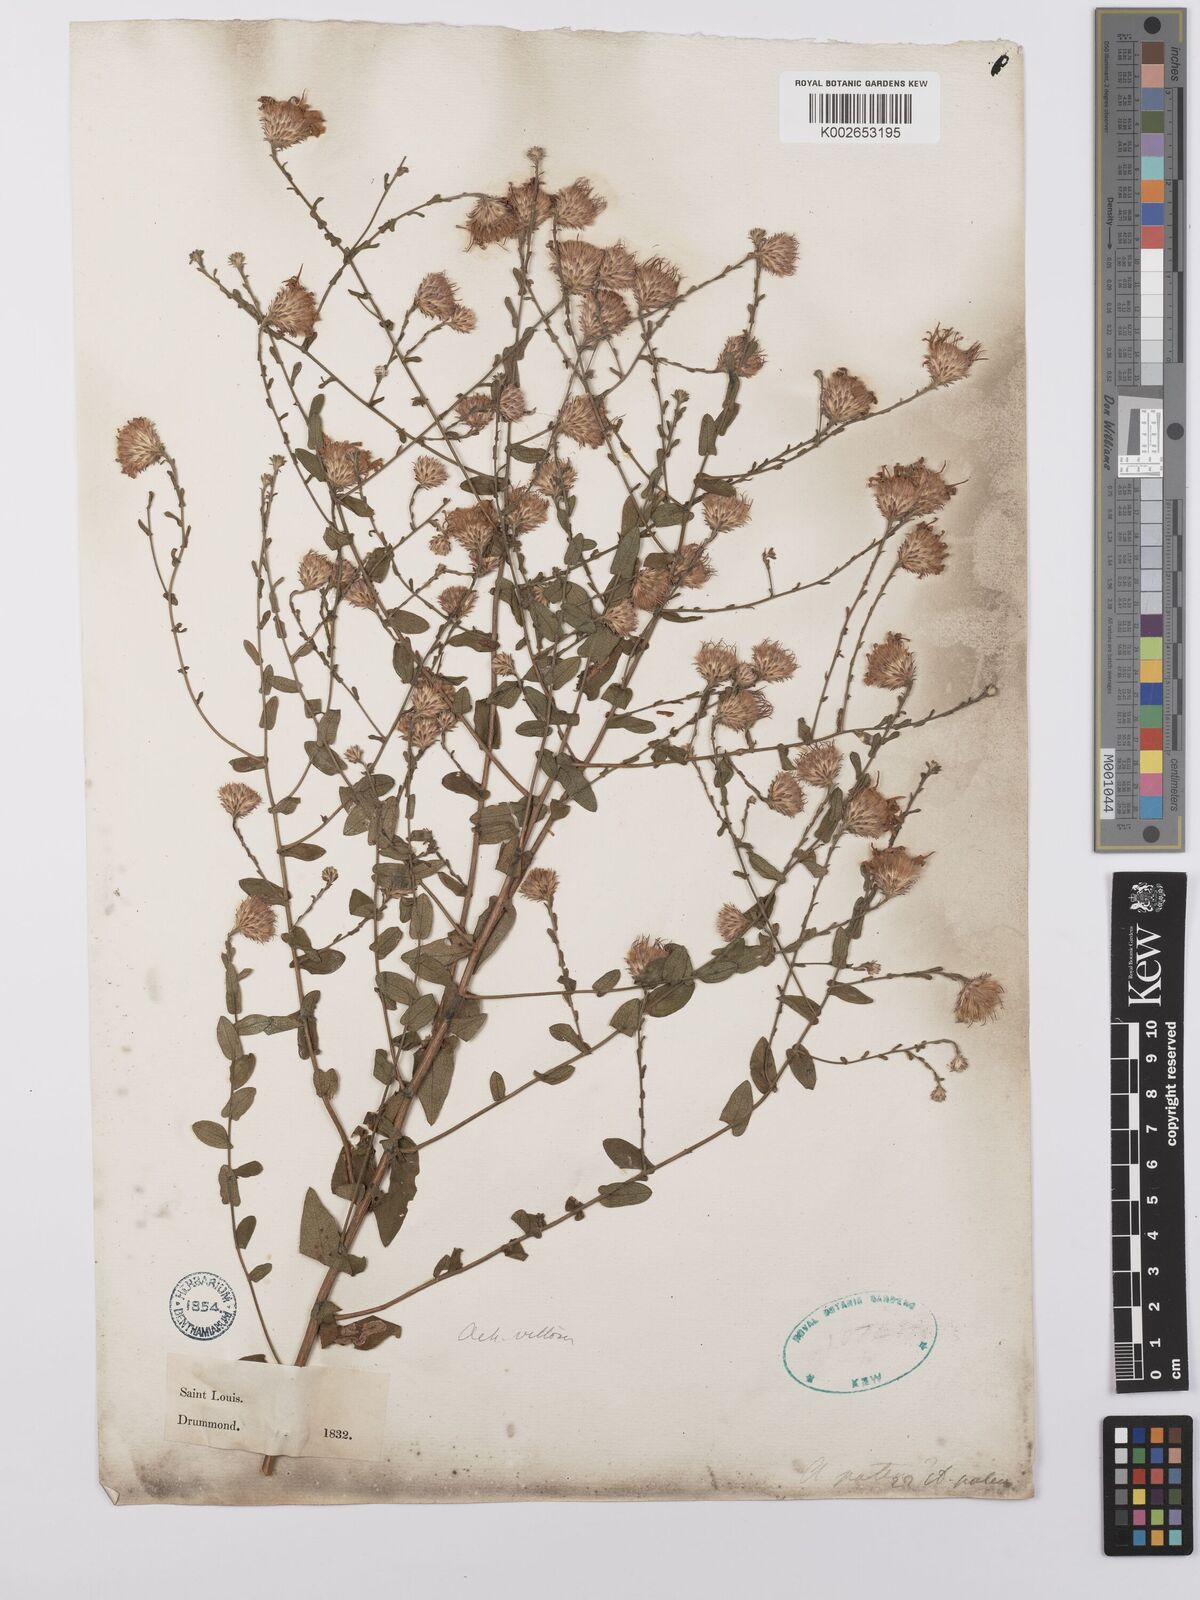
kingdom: Plantae
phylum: Tracheophyta
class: Magnoliopsida
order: Asterales
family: Asteraceae
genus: Symphyotrichum
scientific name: Symphyotrichum patens
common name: Late purple aster
